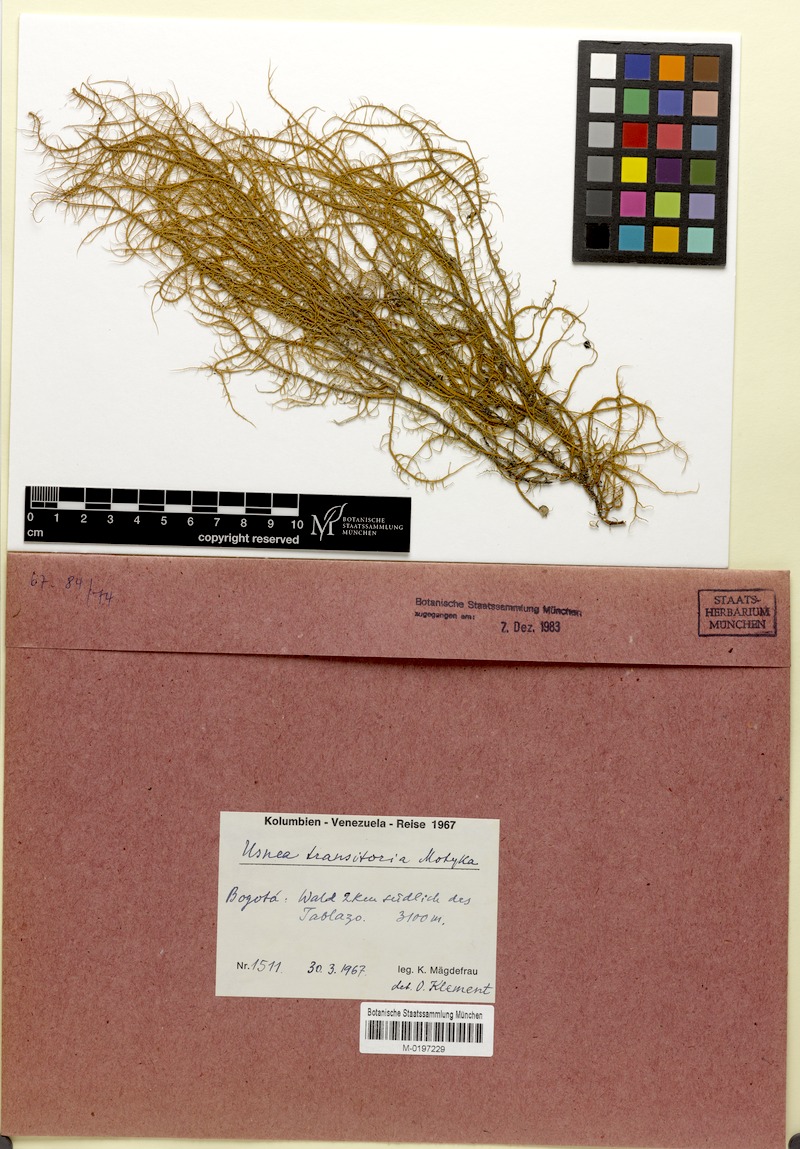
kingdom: Fungi
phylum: Ascomycota
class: Lecanoromycetes
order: Lecanorales
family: Parmeliaceae
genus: Usnea
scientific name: Usnea transitoria
